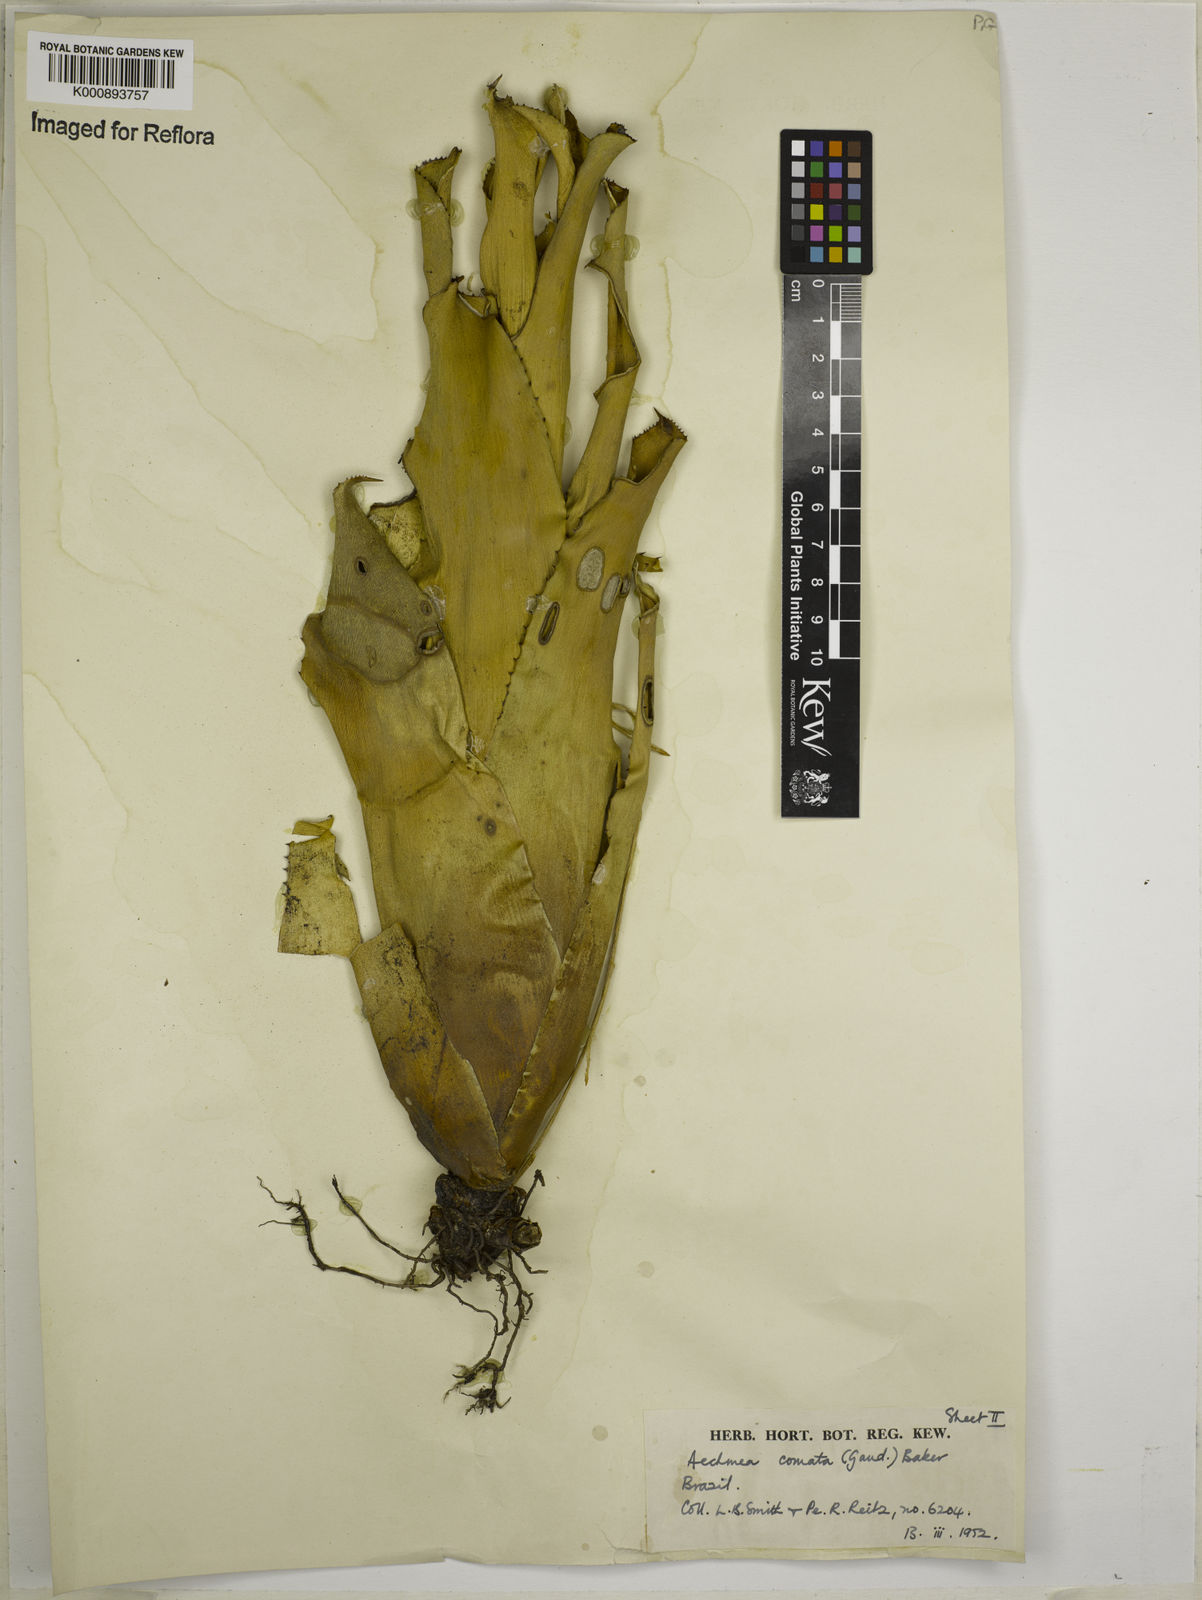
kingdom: Plantae
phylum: Tracheophyta
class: Liliopsida
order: Poales
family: Bromeliaceae
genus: Aechmea
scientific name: Aechmea
